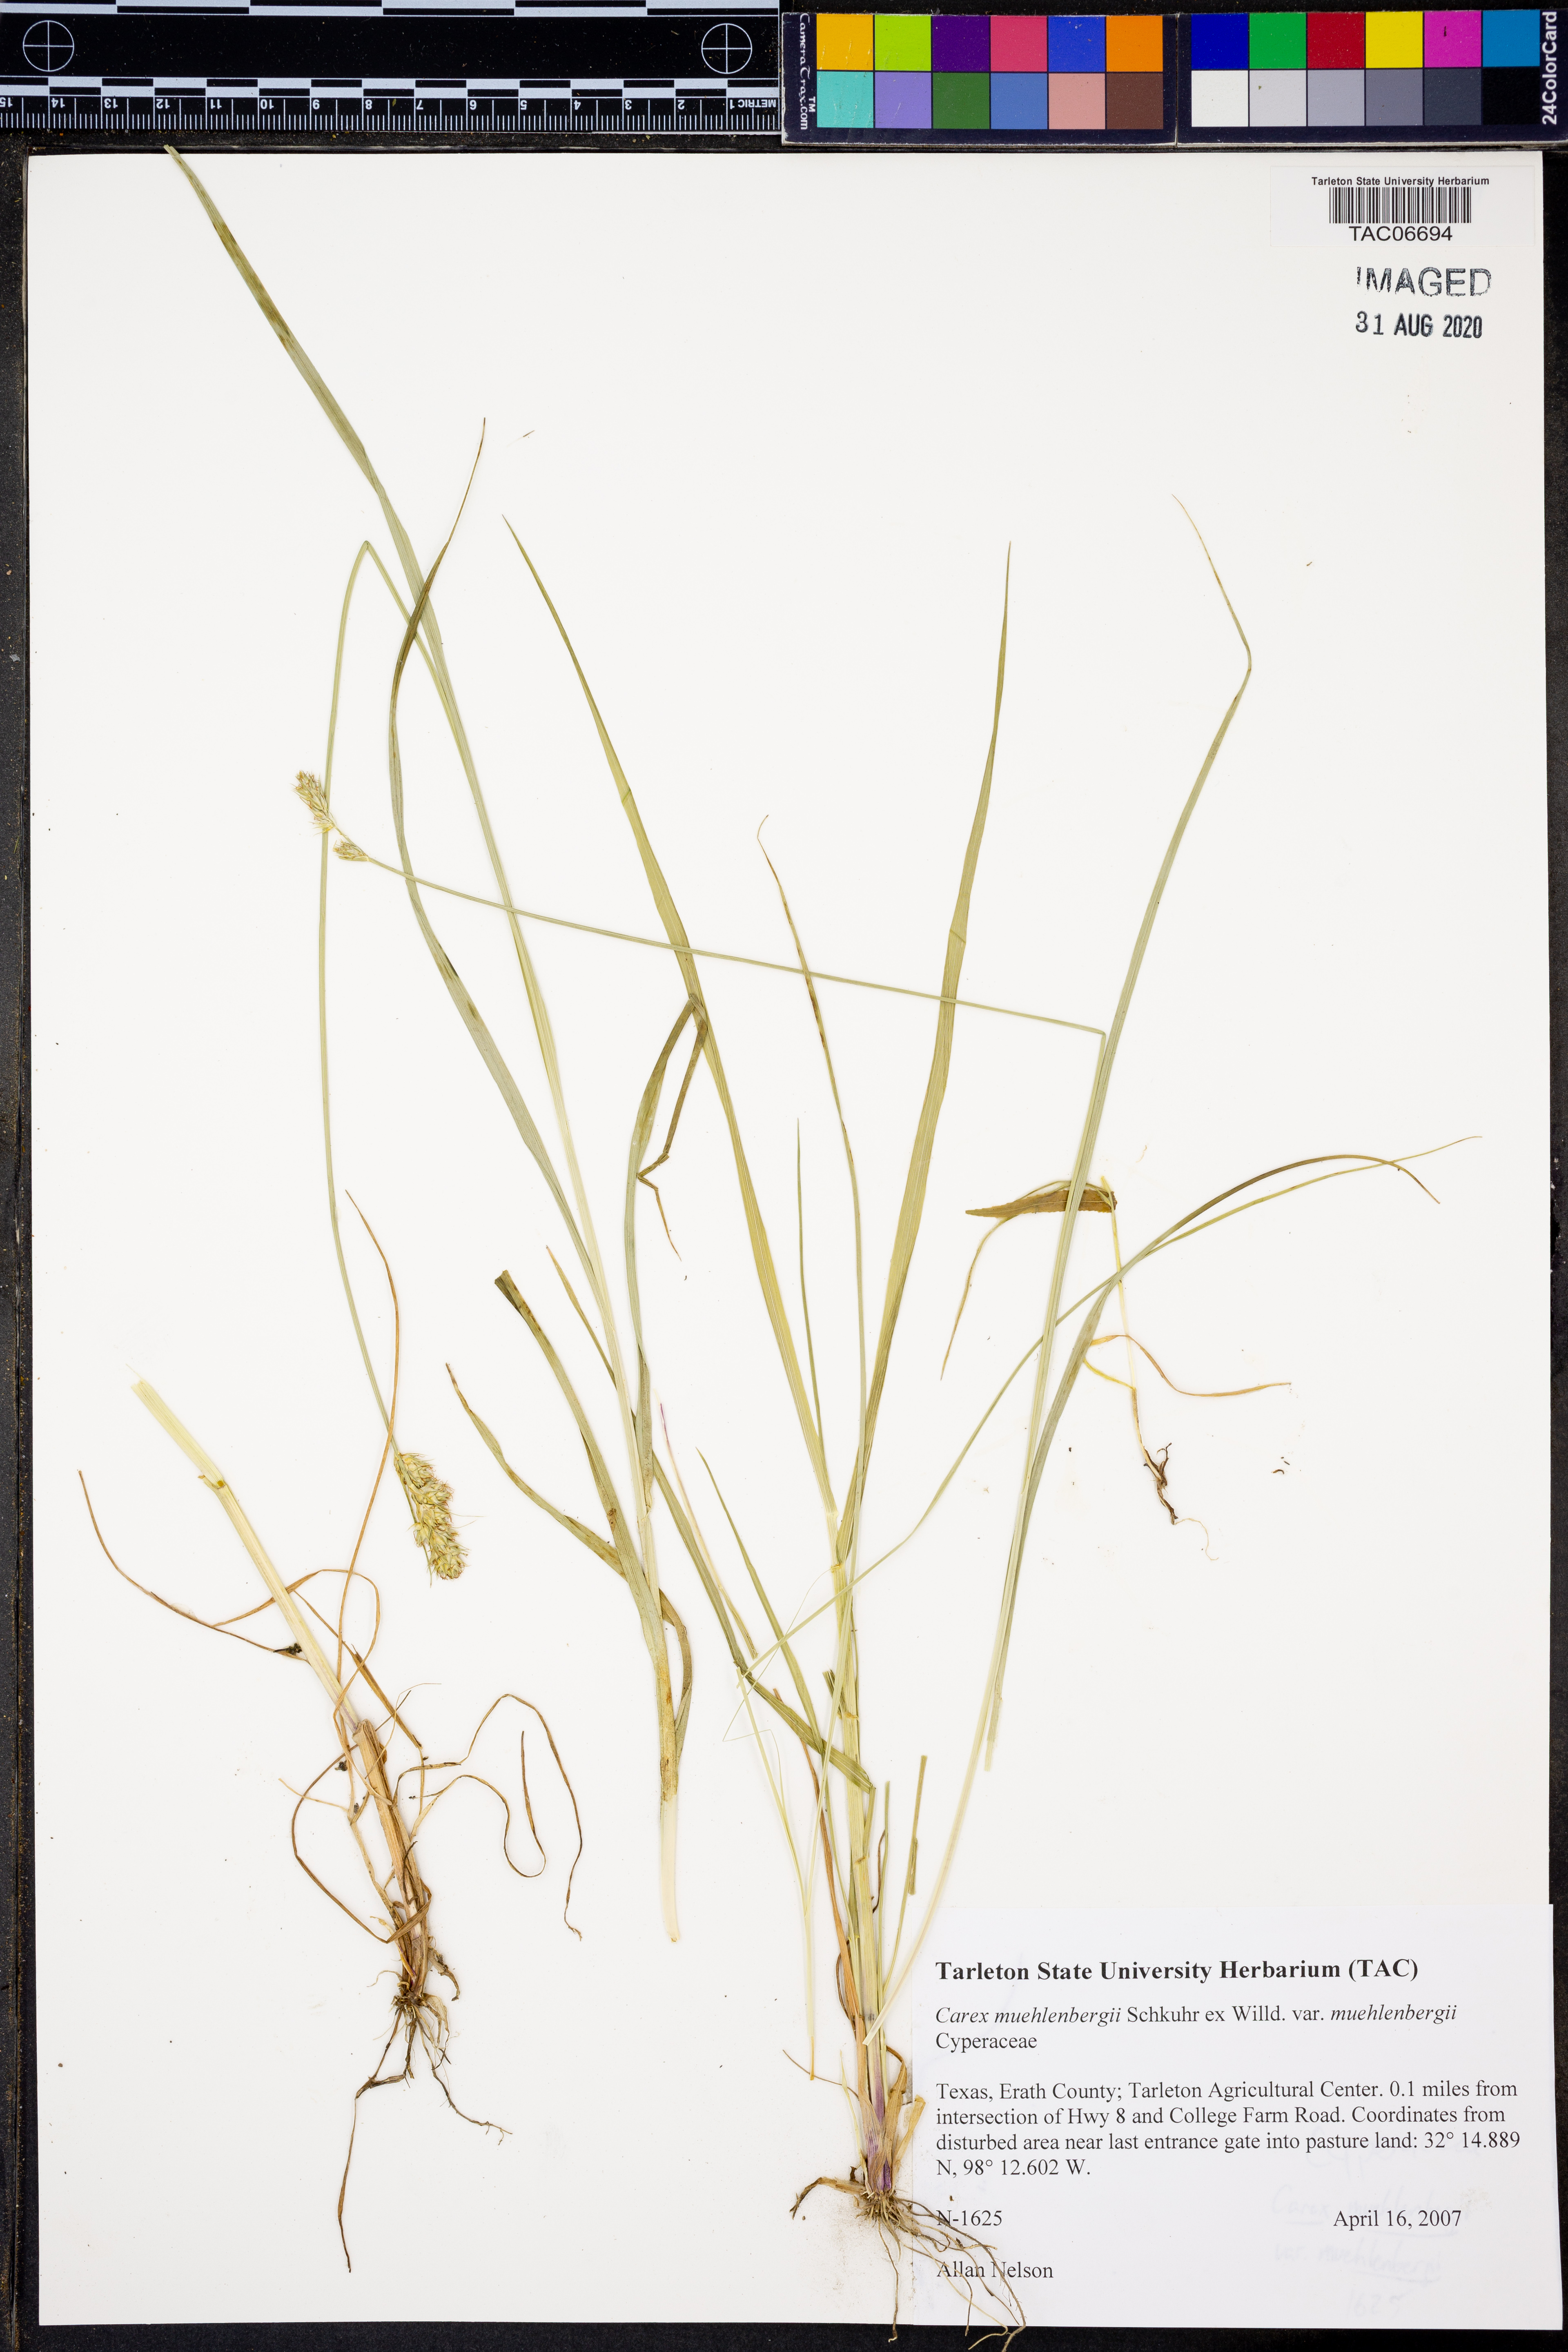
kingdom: Plantae
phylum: Tracheophyta
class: Liliopsida
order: Poales
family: Cyperaceae
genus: Carex
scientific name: Carex muehlenbergii
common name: Muhlenberg's bracted sedge
